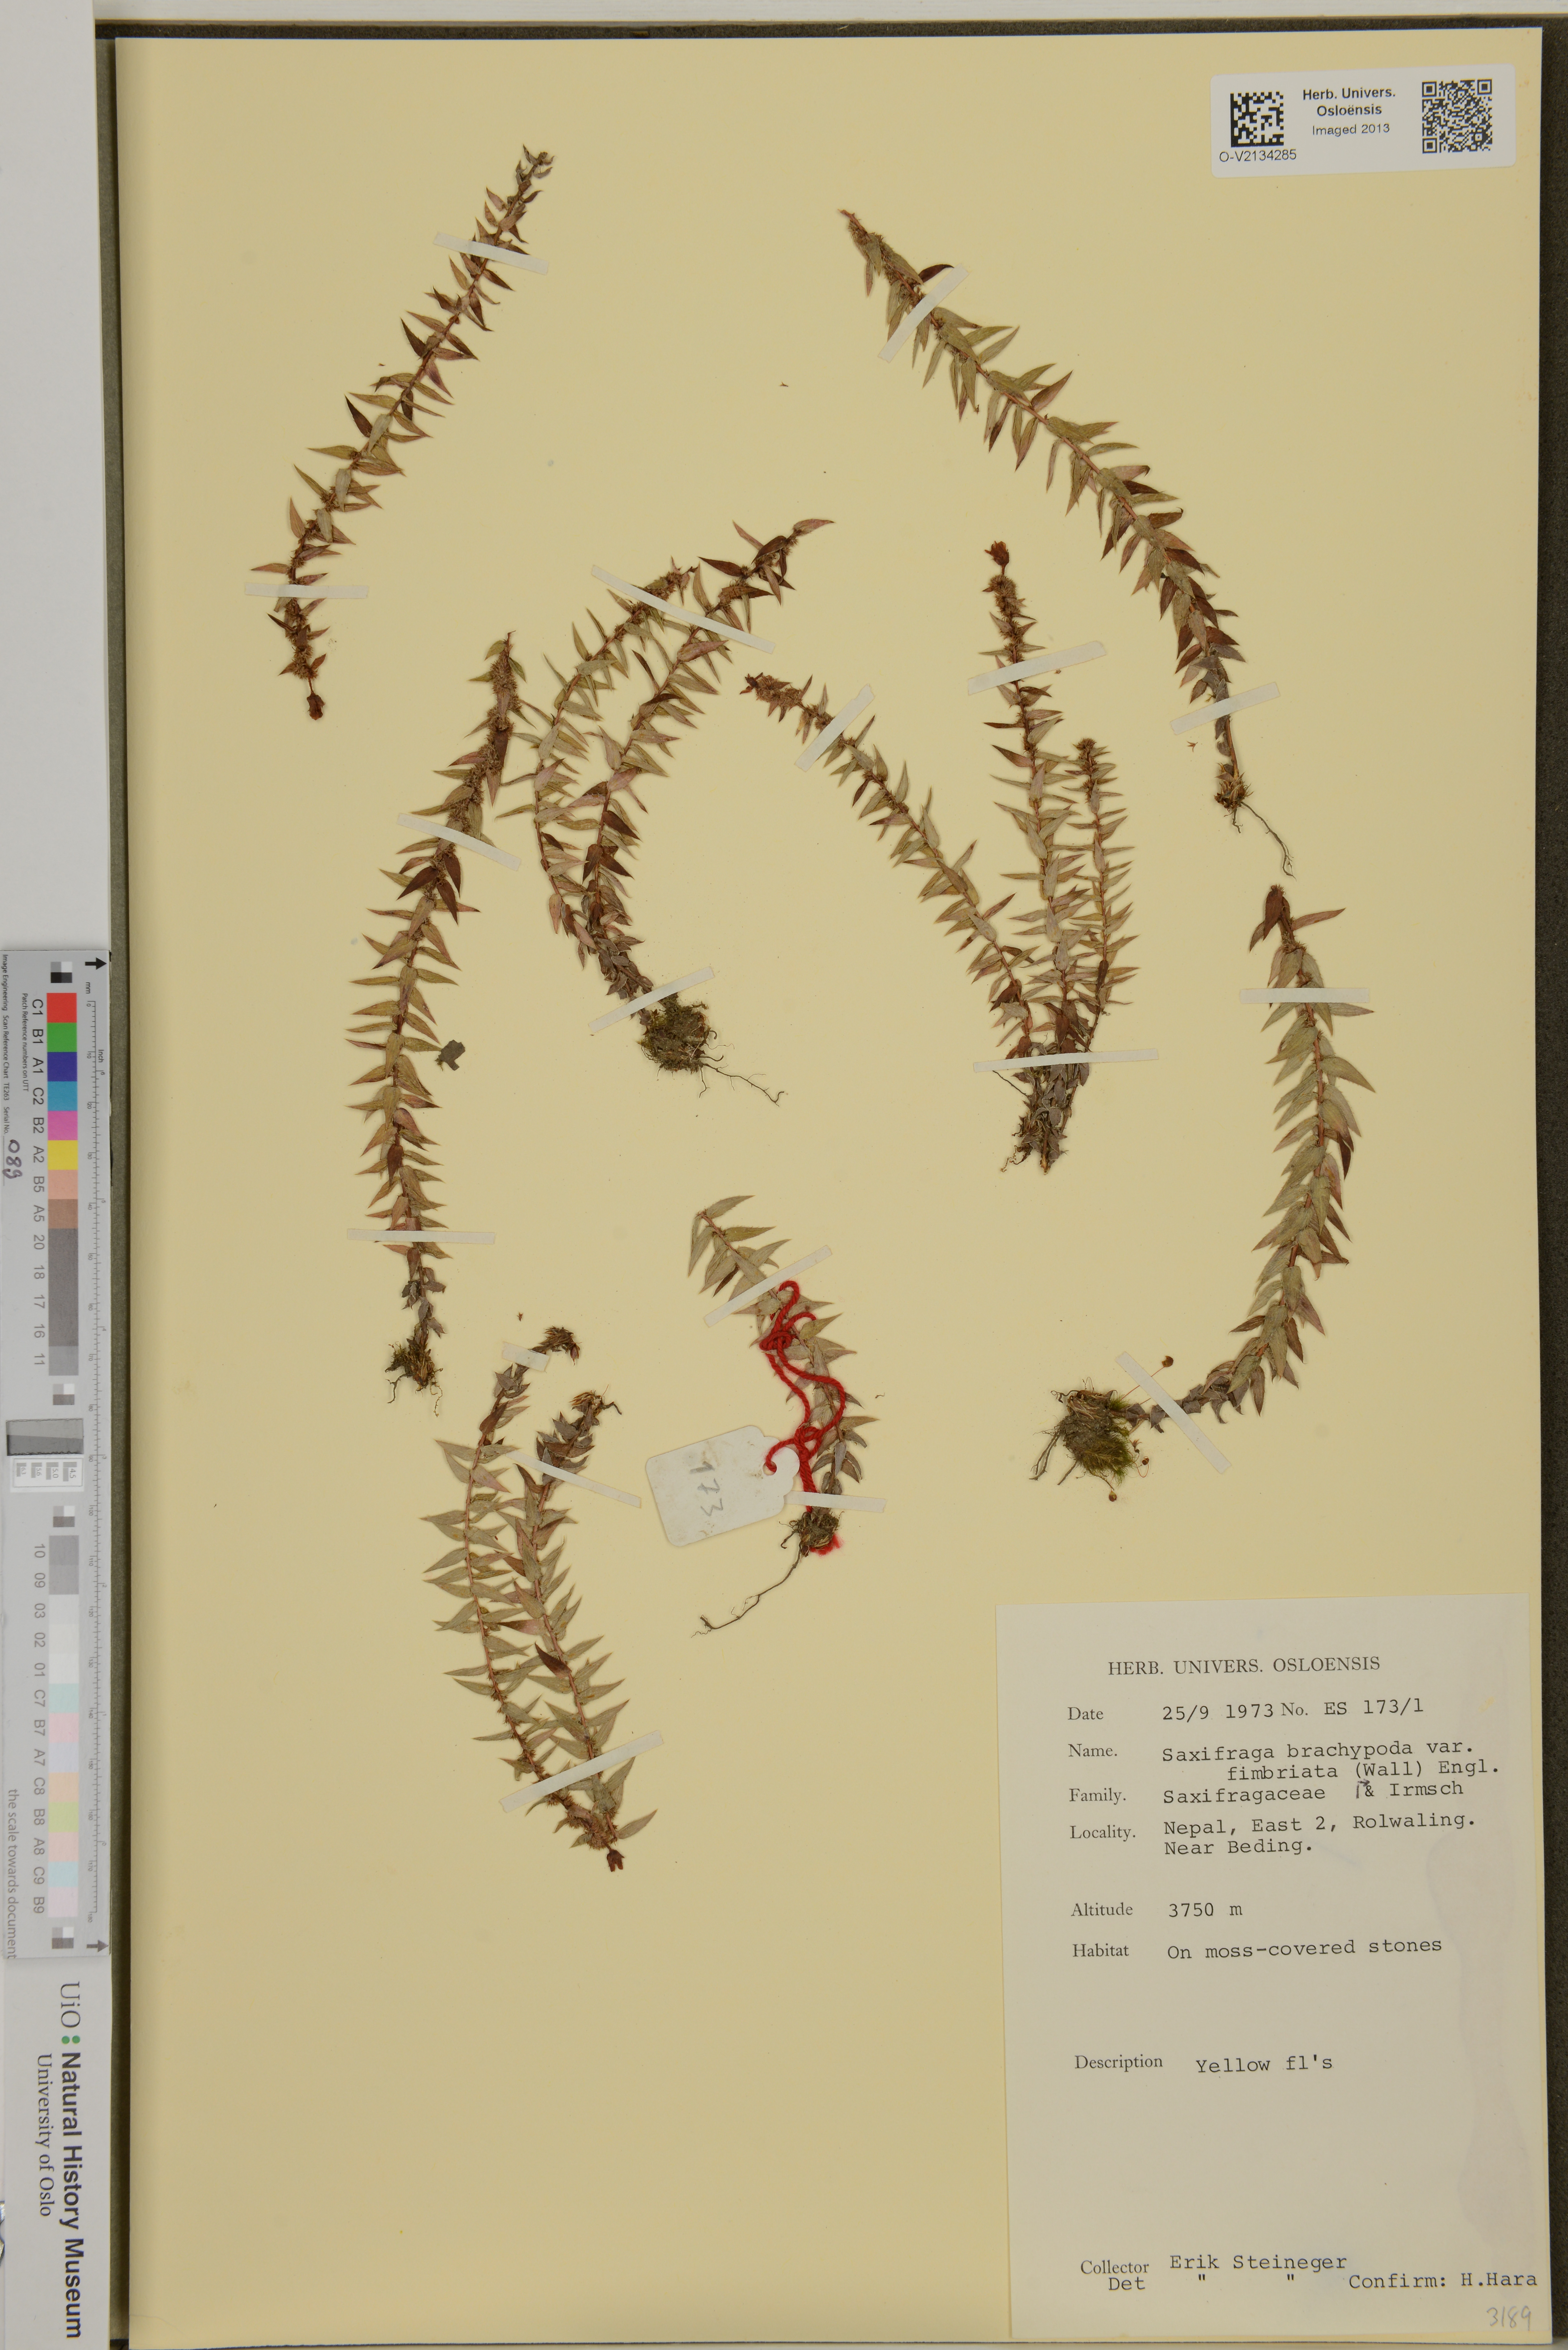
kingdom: Plantae
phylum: Tracheophyta
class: Magnoliopsida
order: Saxifragales
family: Saxifragaceae
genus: Saxifraga
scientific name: Saxifraga brachypoda
